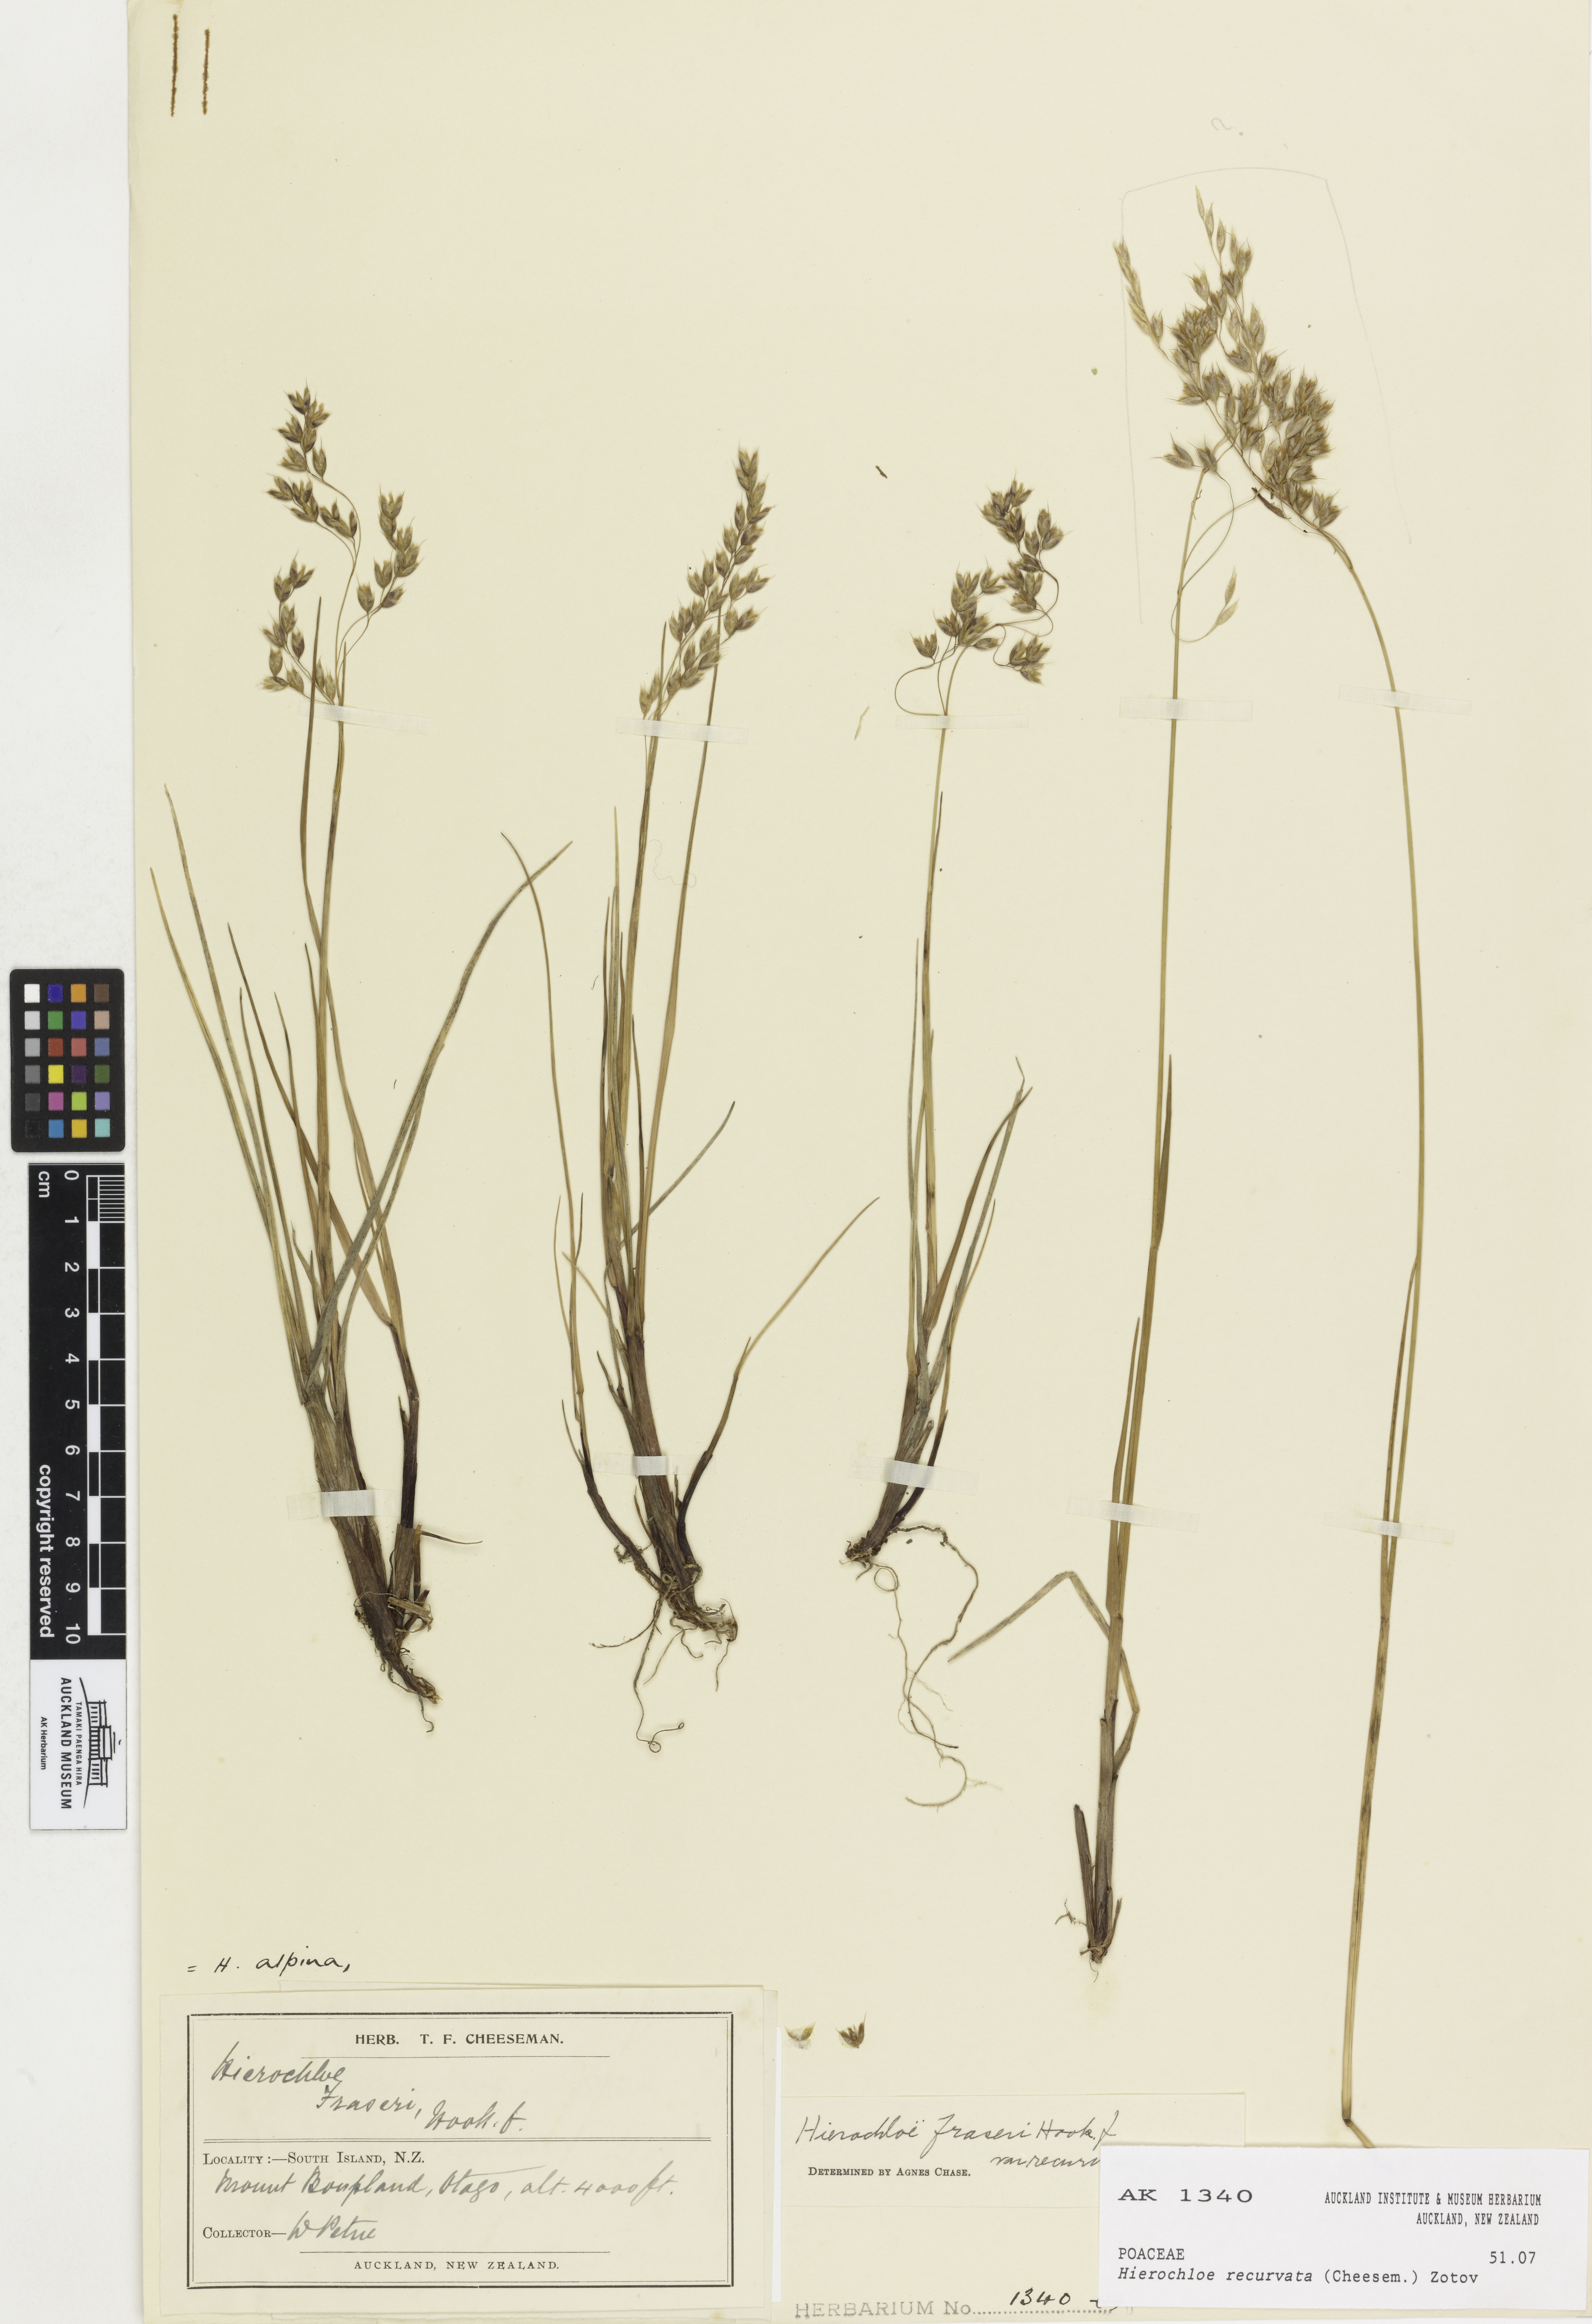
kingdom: Plantae
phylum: Tracheophyta
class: Liliopsida
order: Poales
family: Poaceae
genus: Anthoxanthum
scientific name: Anthoxanthum recurvatum
